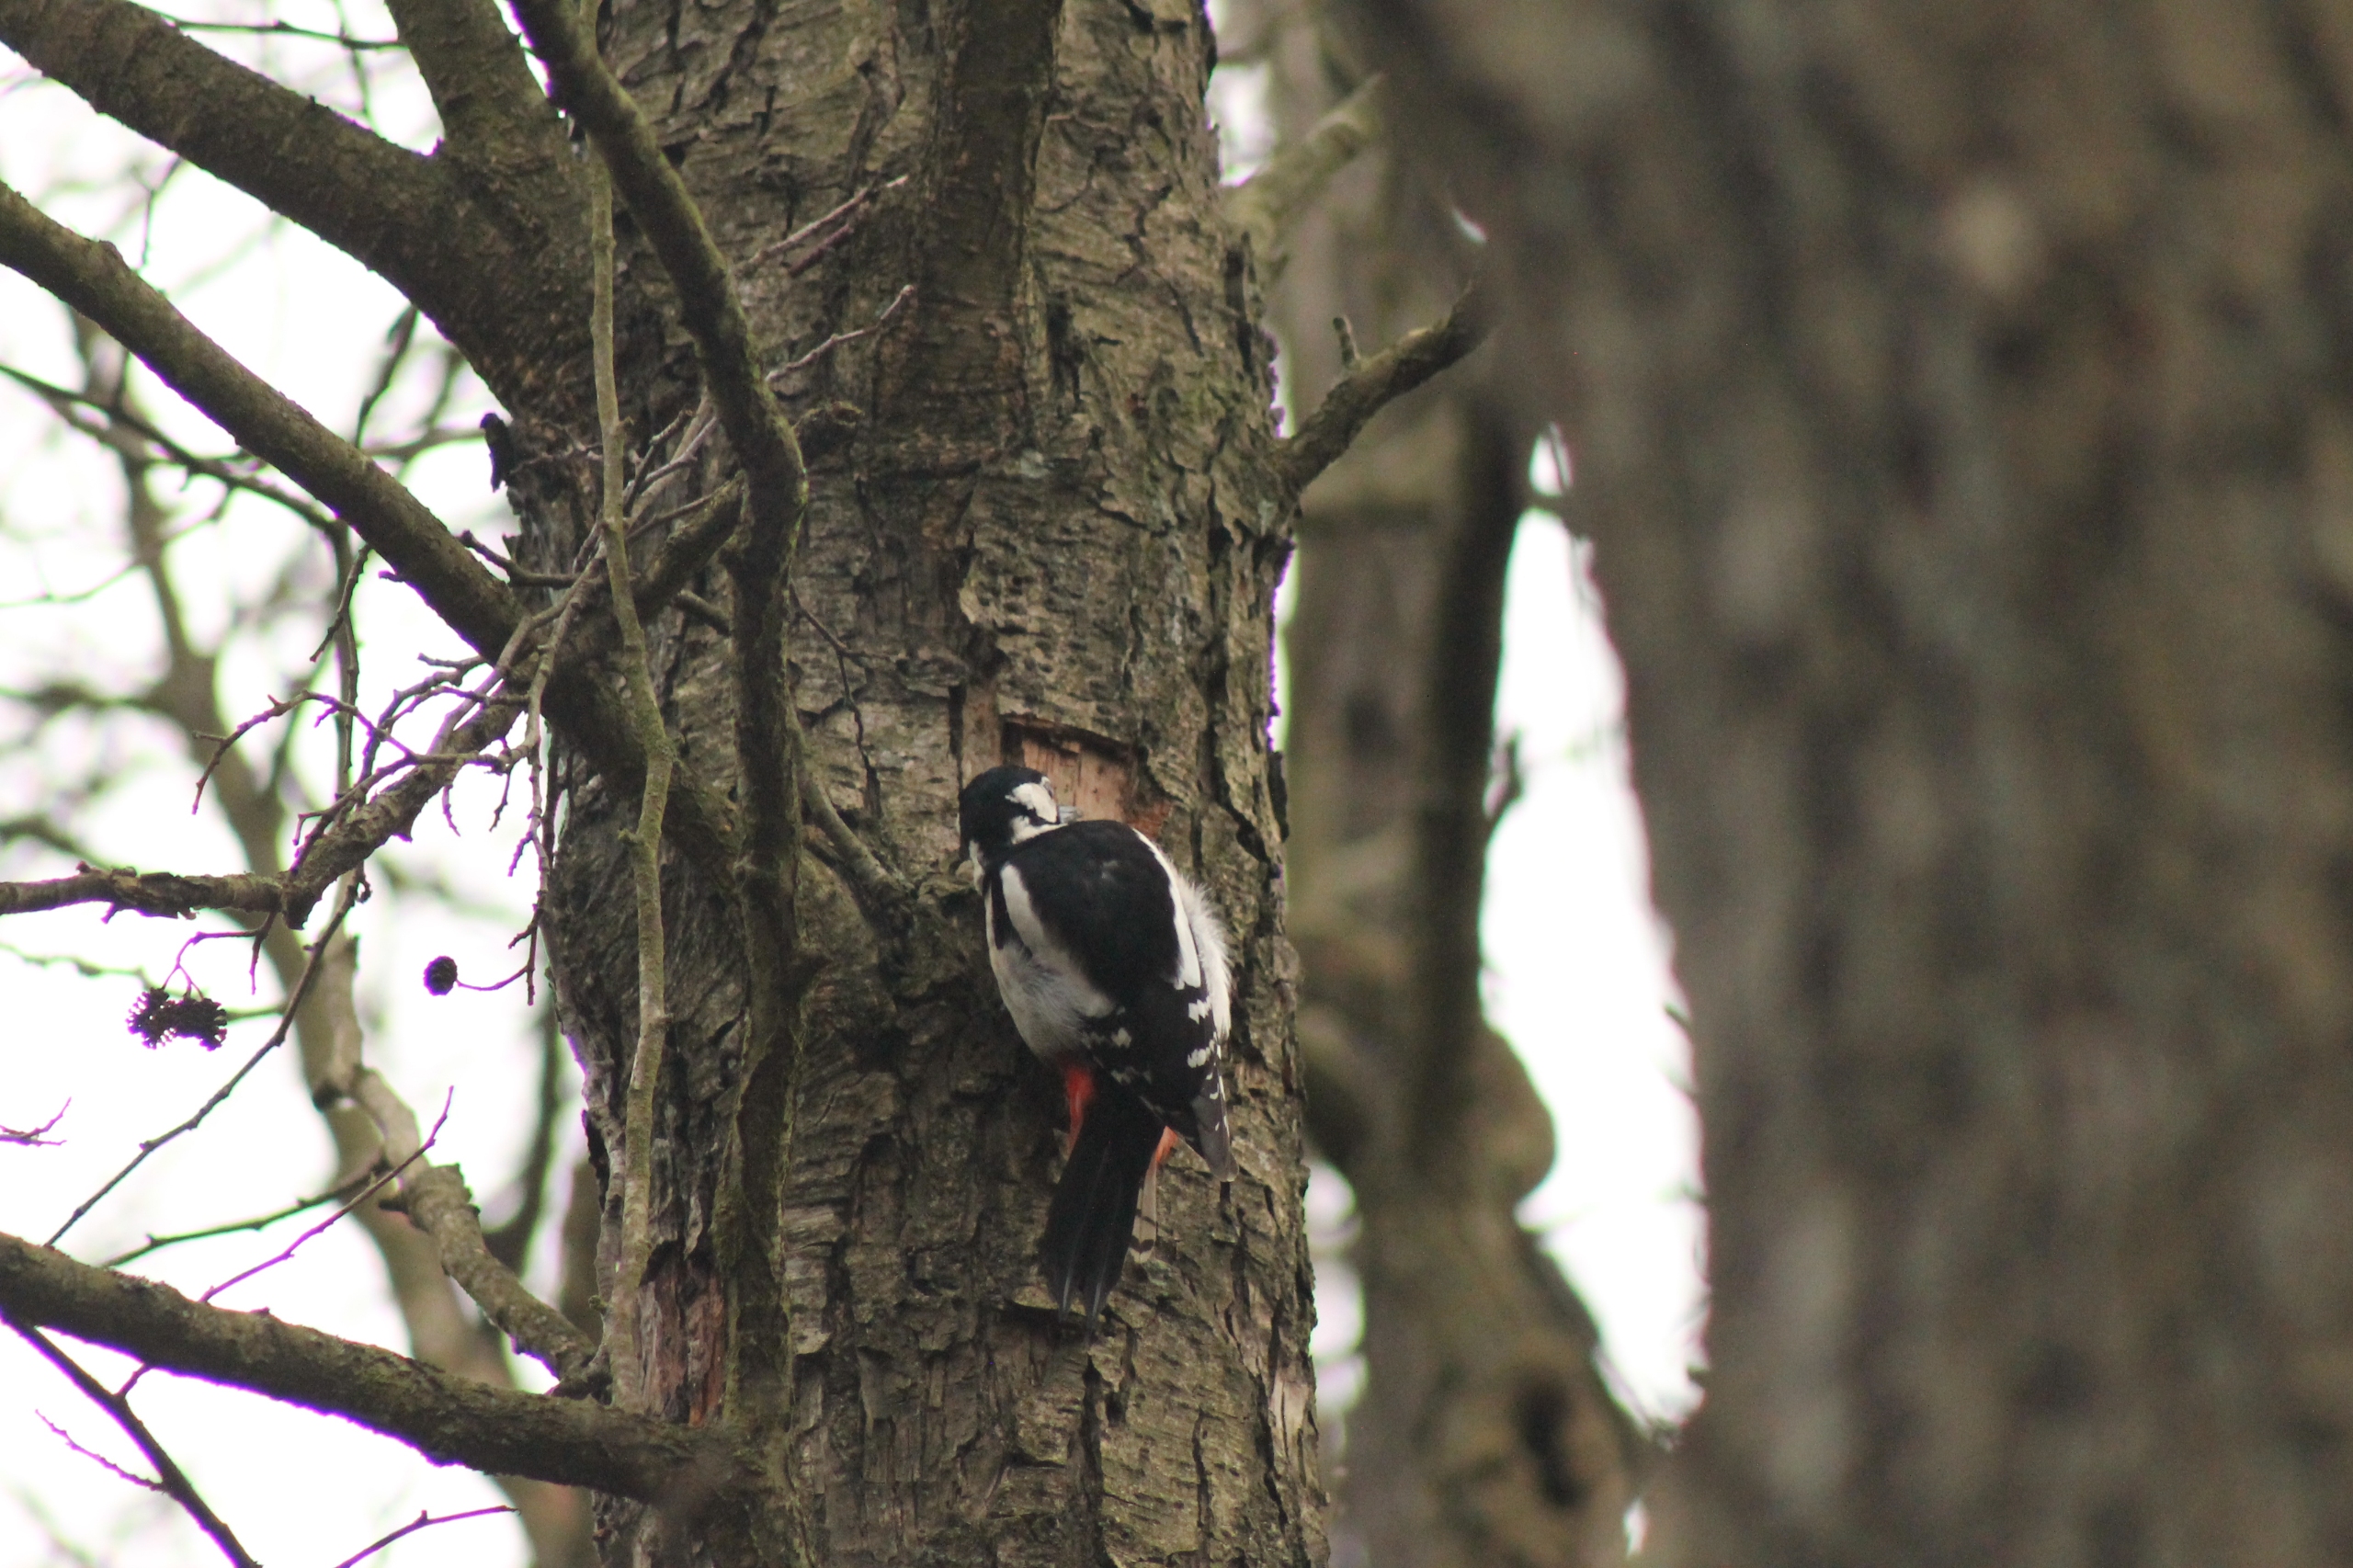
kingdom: Animalia
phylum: Chordata
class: Aves
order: Piciformes
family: Picidae
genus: Dendrocopos
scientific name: Dendrocopos major
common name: Stor flagspætte
